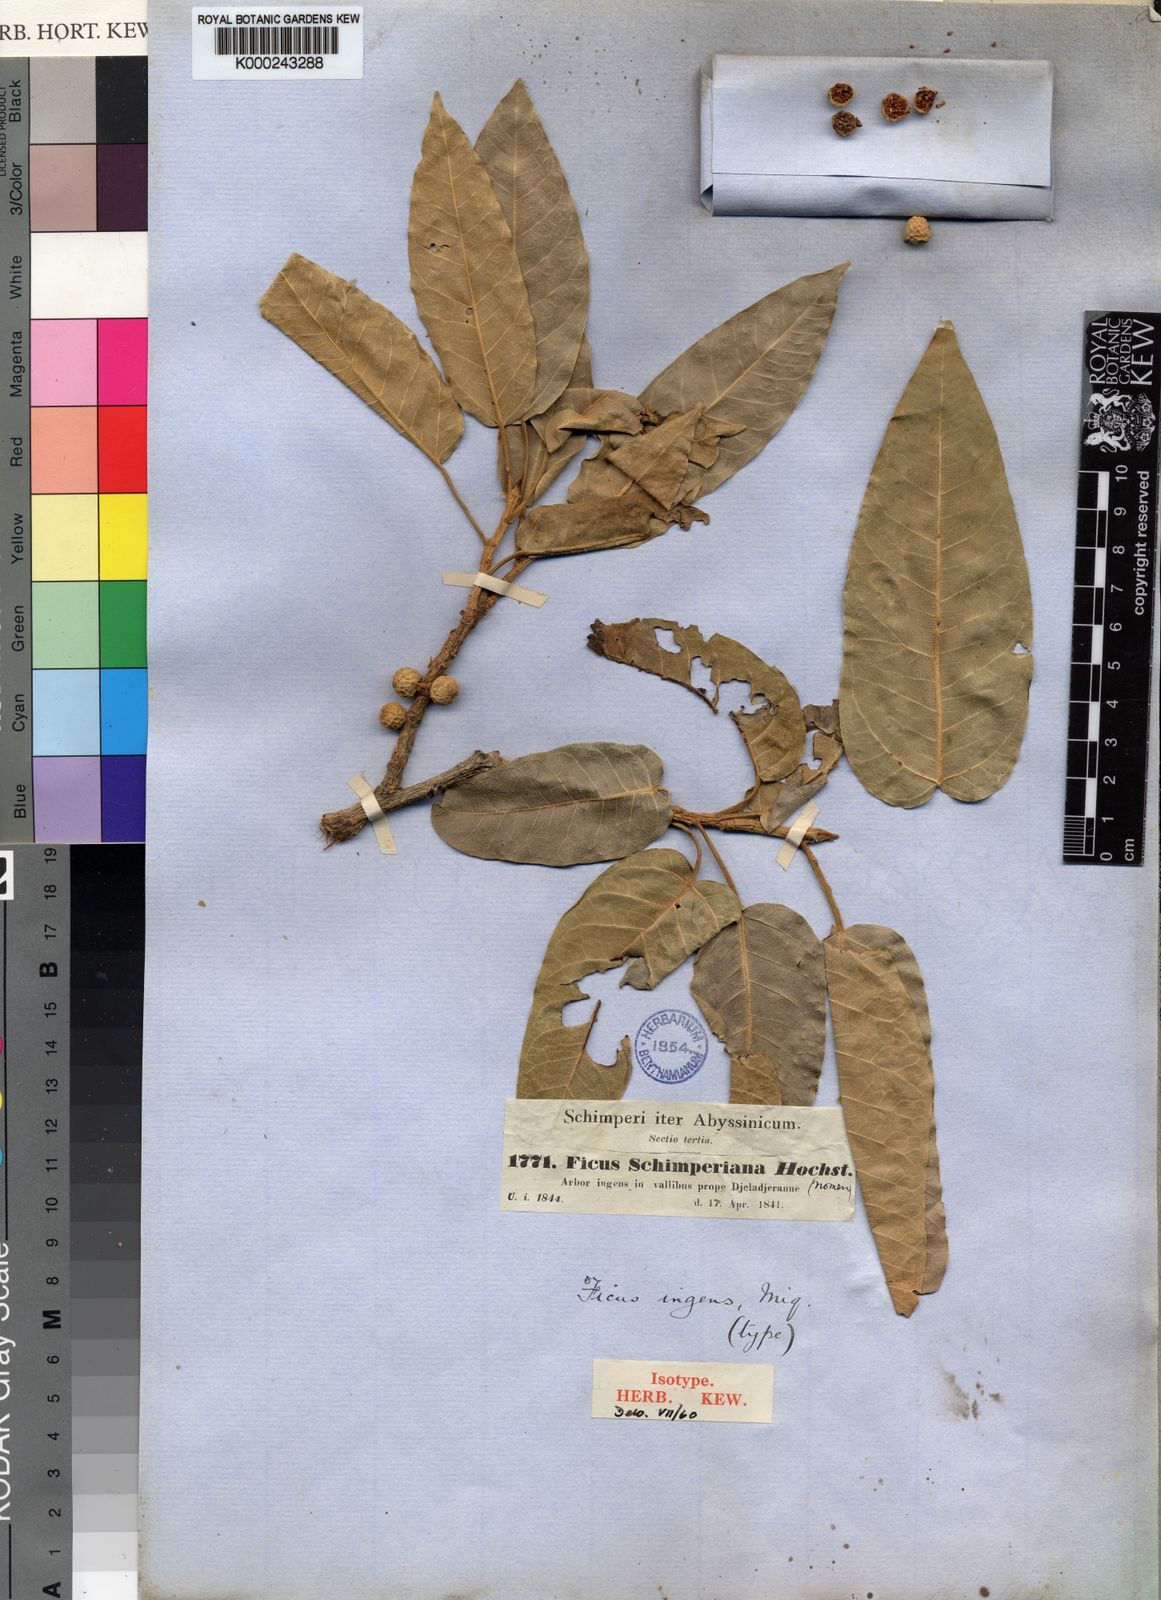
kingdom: Plantae
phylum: Tracheophyta
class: Magnoliopsida
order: Rosales
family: Moraceae
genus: Ficus
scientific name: Ficus ingens
